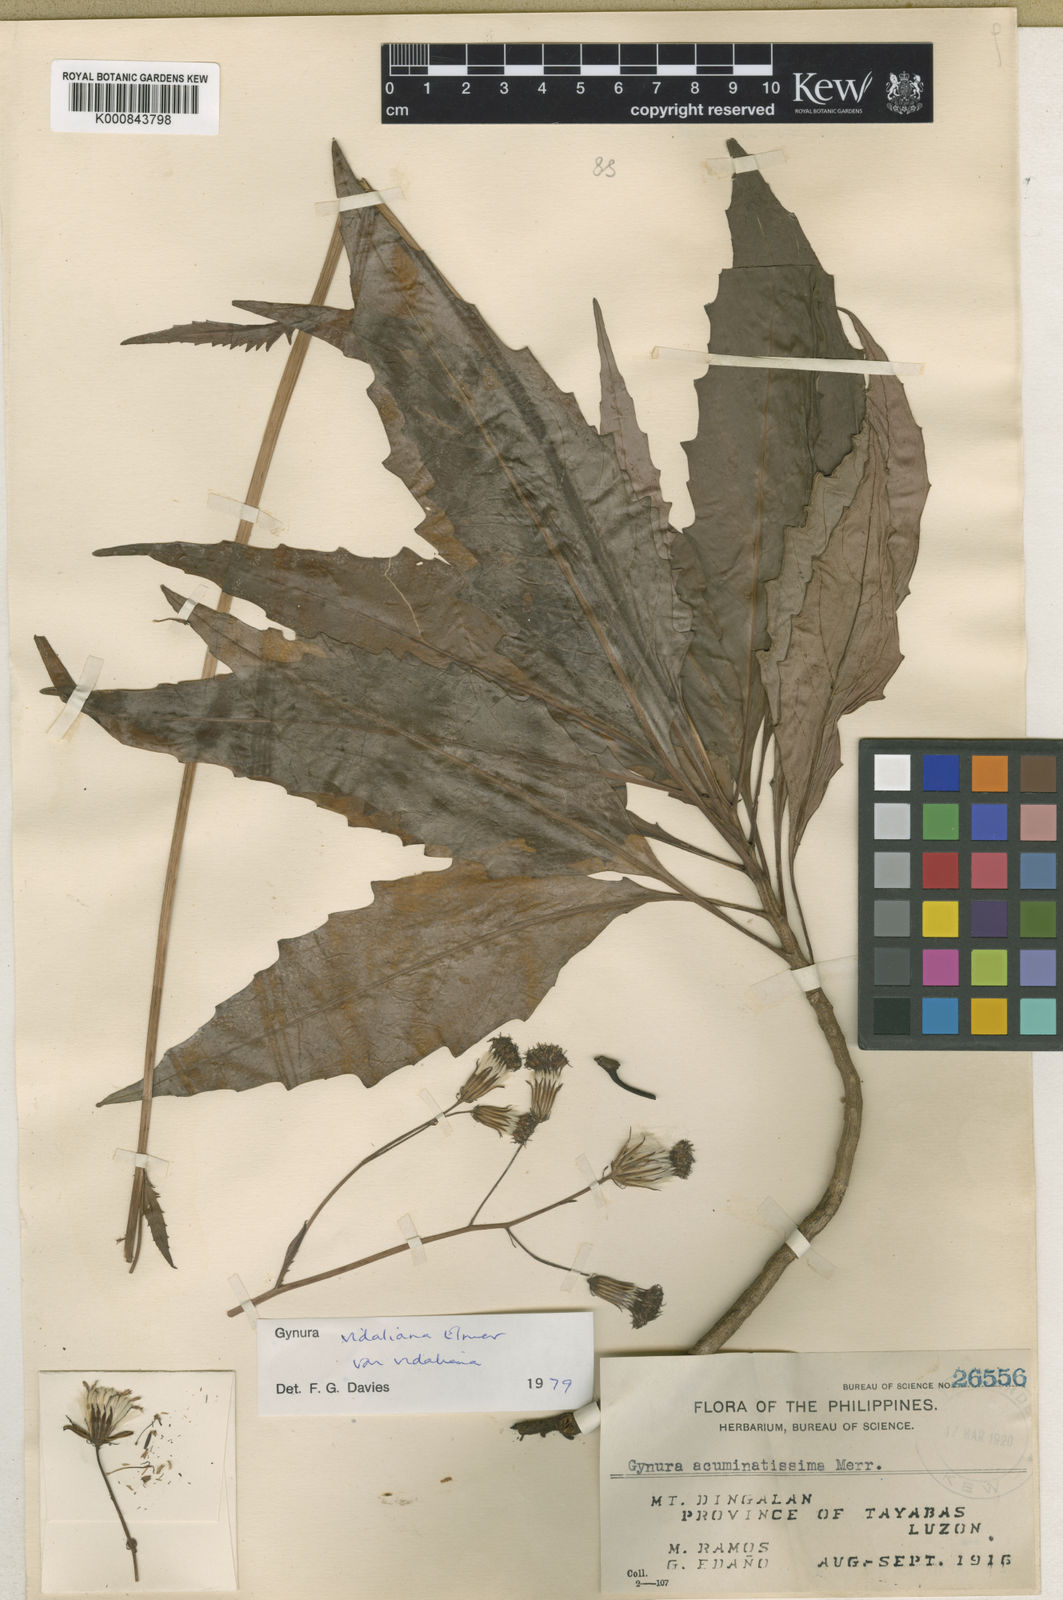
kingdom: Plantae
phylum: Tracheophyta
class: Magnoliopsida
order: Asterales
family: Asteraceae
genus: Gynura
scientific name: Gynura vidaliana
